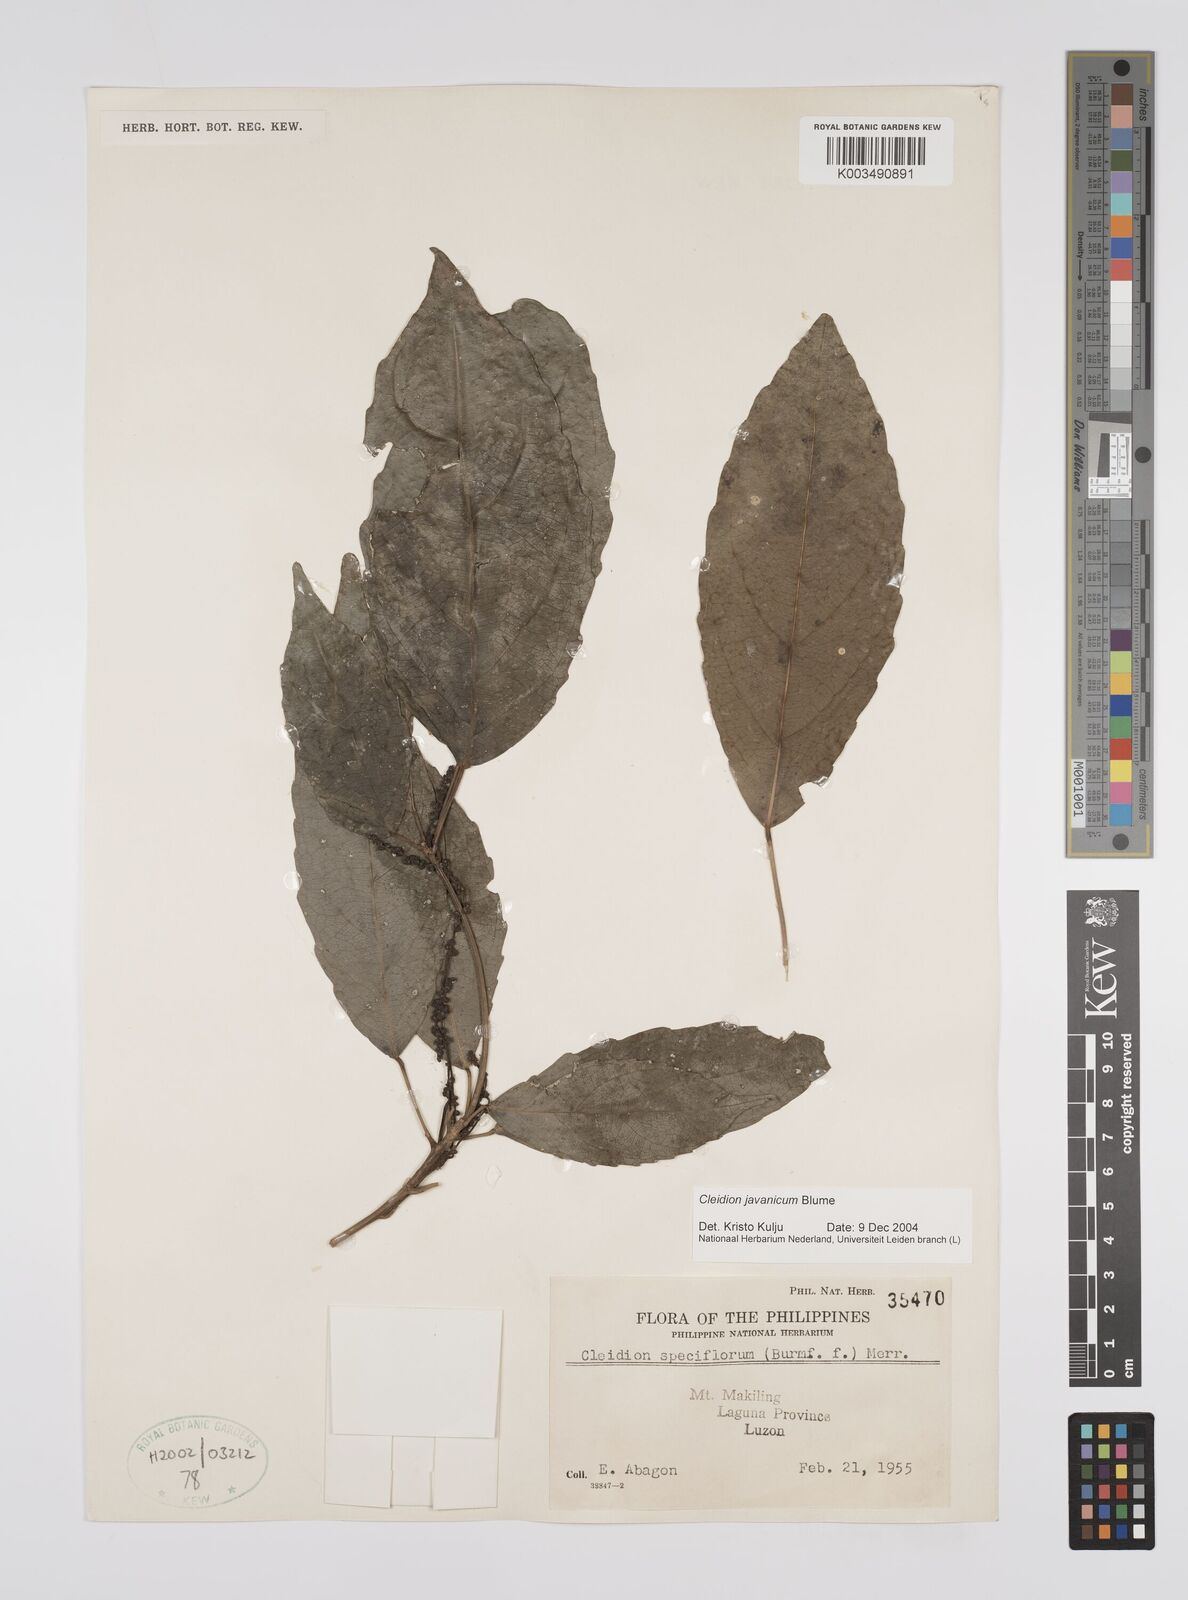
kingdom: Plantae
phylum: Tracheophyta
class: Magnoliopsida
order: Malpighiales
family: Euphorbiaceae
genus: Cleidion
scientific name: Cleidion javanicum
